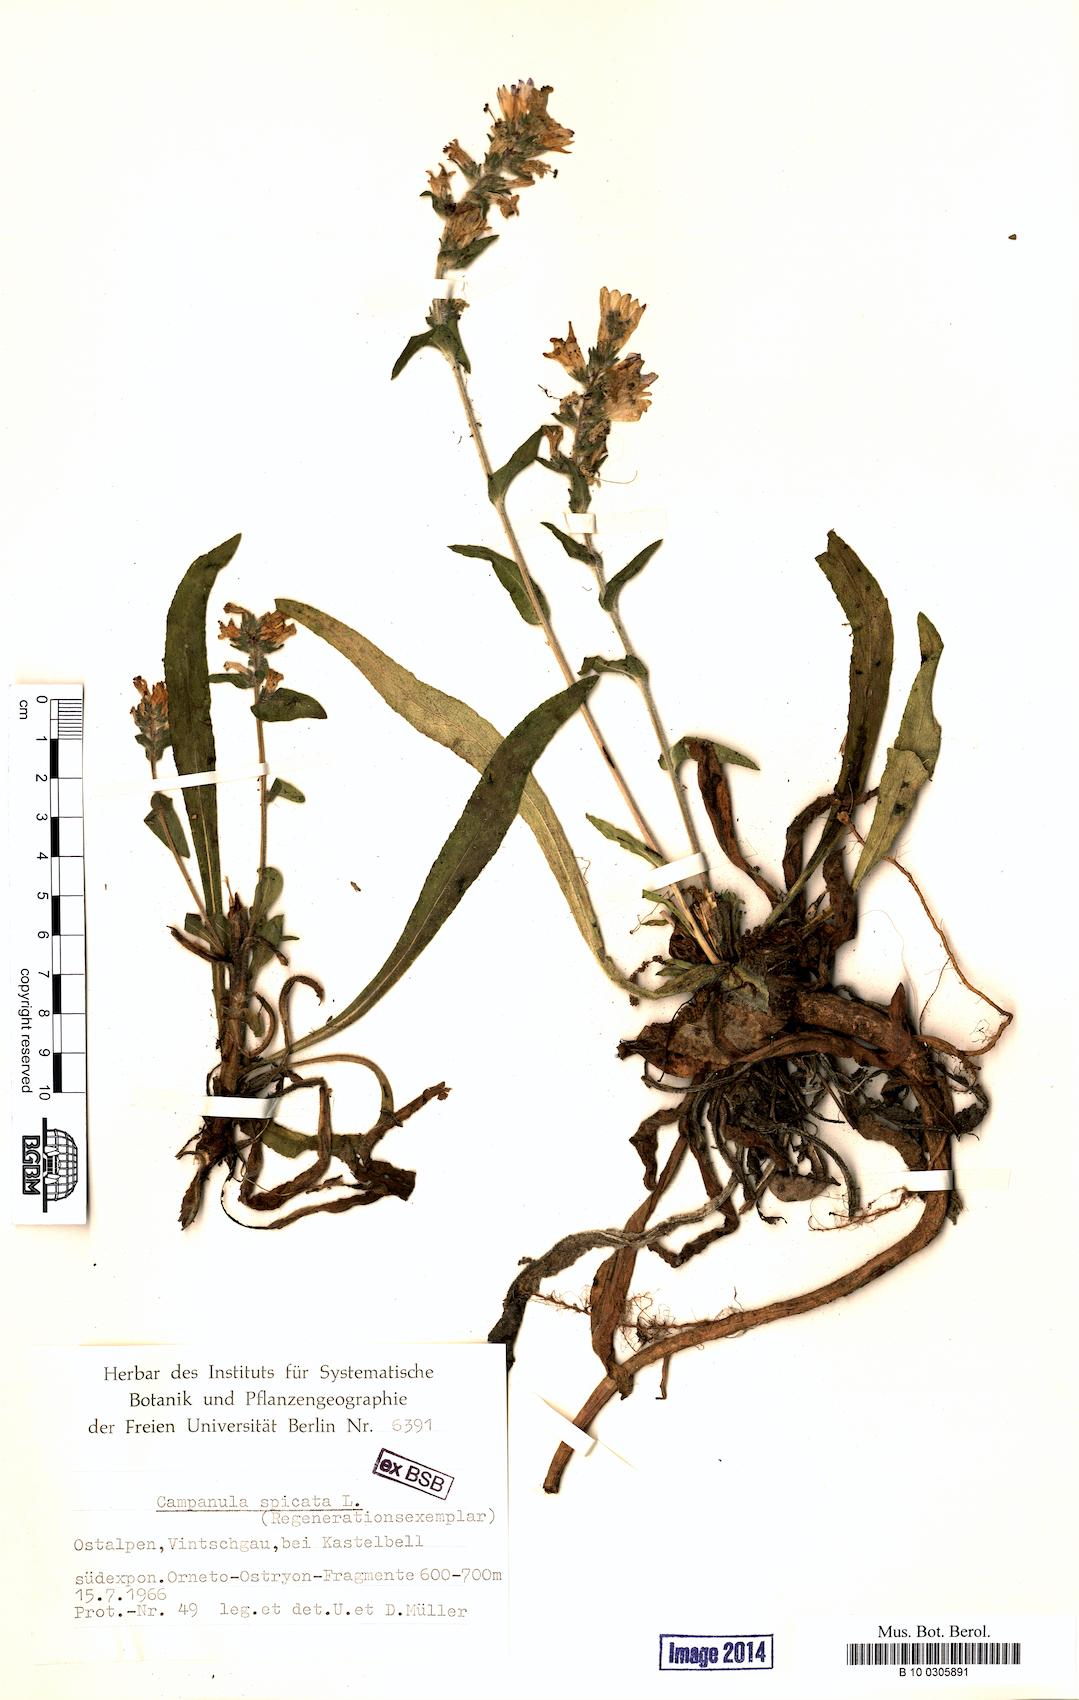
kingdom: Plantae
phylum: Tracheophyta
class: Magnoliopsida
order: Asterales
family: Campanulaceae
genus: Campanula
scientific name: Campanula spicata
